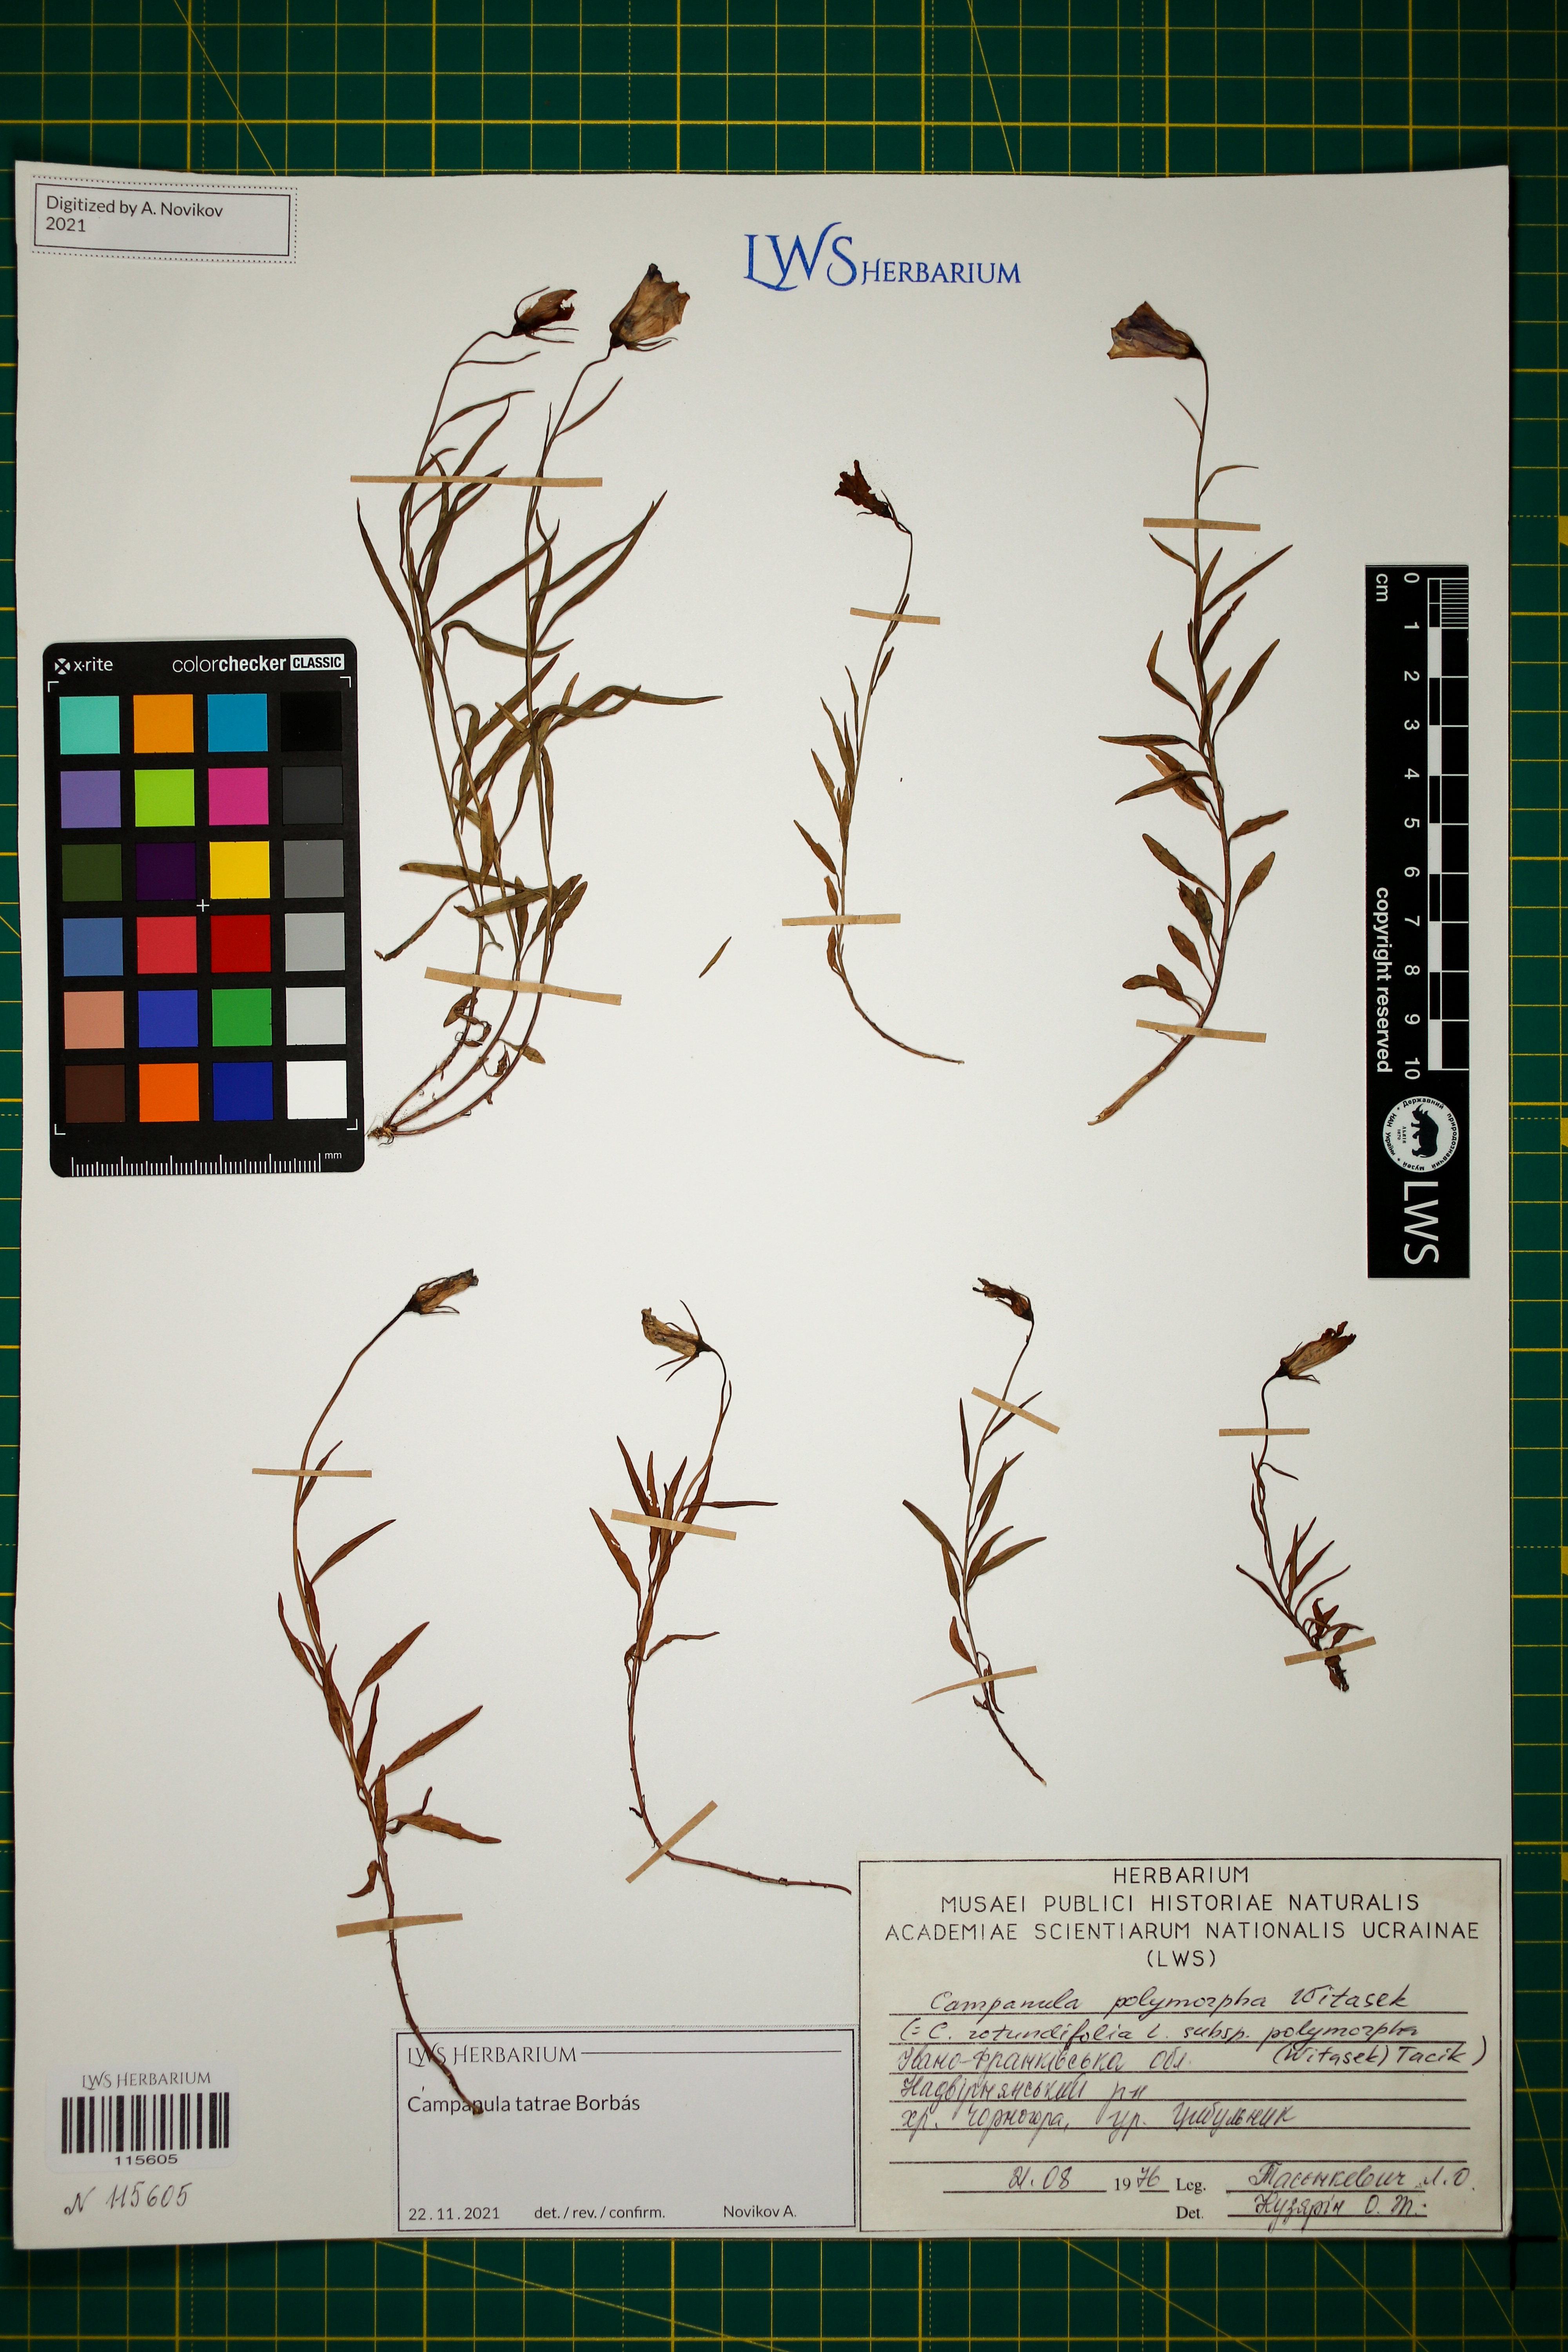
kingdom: Plantae
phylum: Tracheophyta
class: Magnoliopsida
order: Asterales
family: Campanulaceae
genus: Campanula
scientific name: Campanula tatrae
